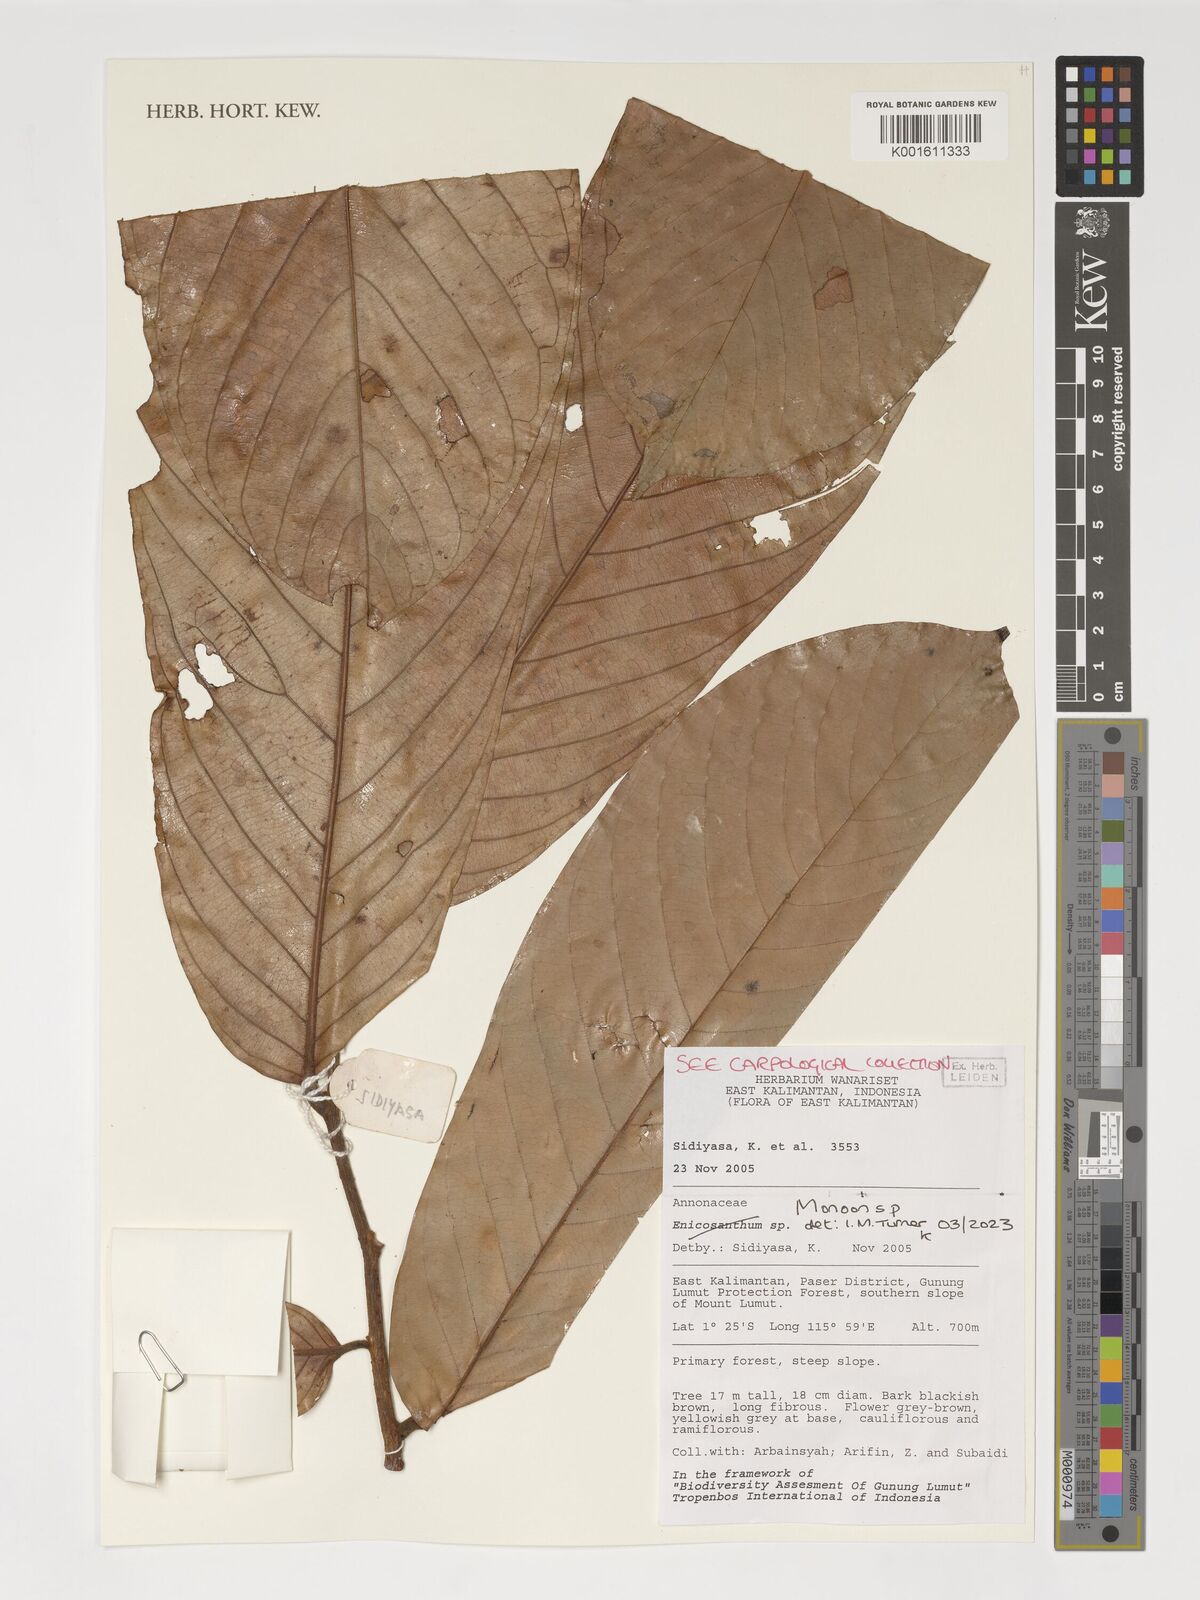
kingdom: Plantae
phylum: Tracheophyta
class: Magnoliopsida
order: Magnoliales
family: Annonaceae
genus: Monoon
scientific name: Monoon
